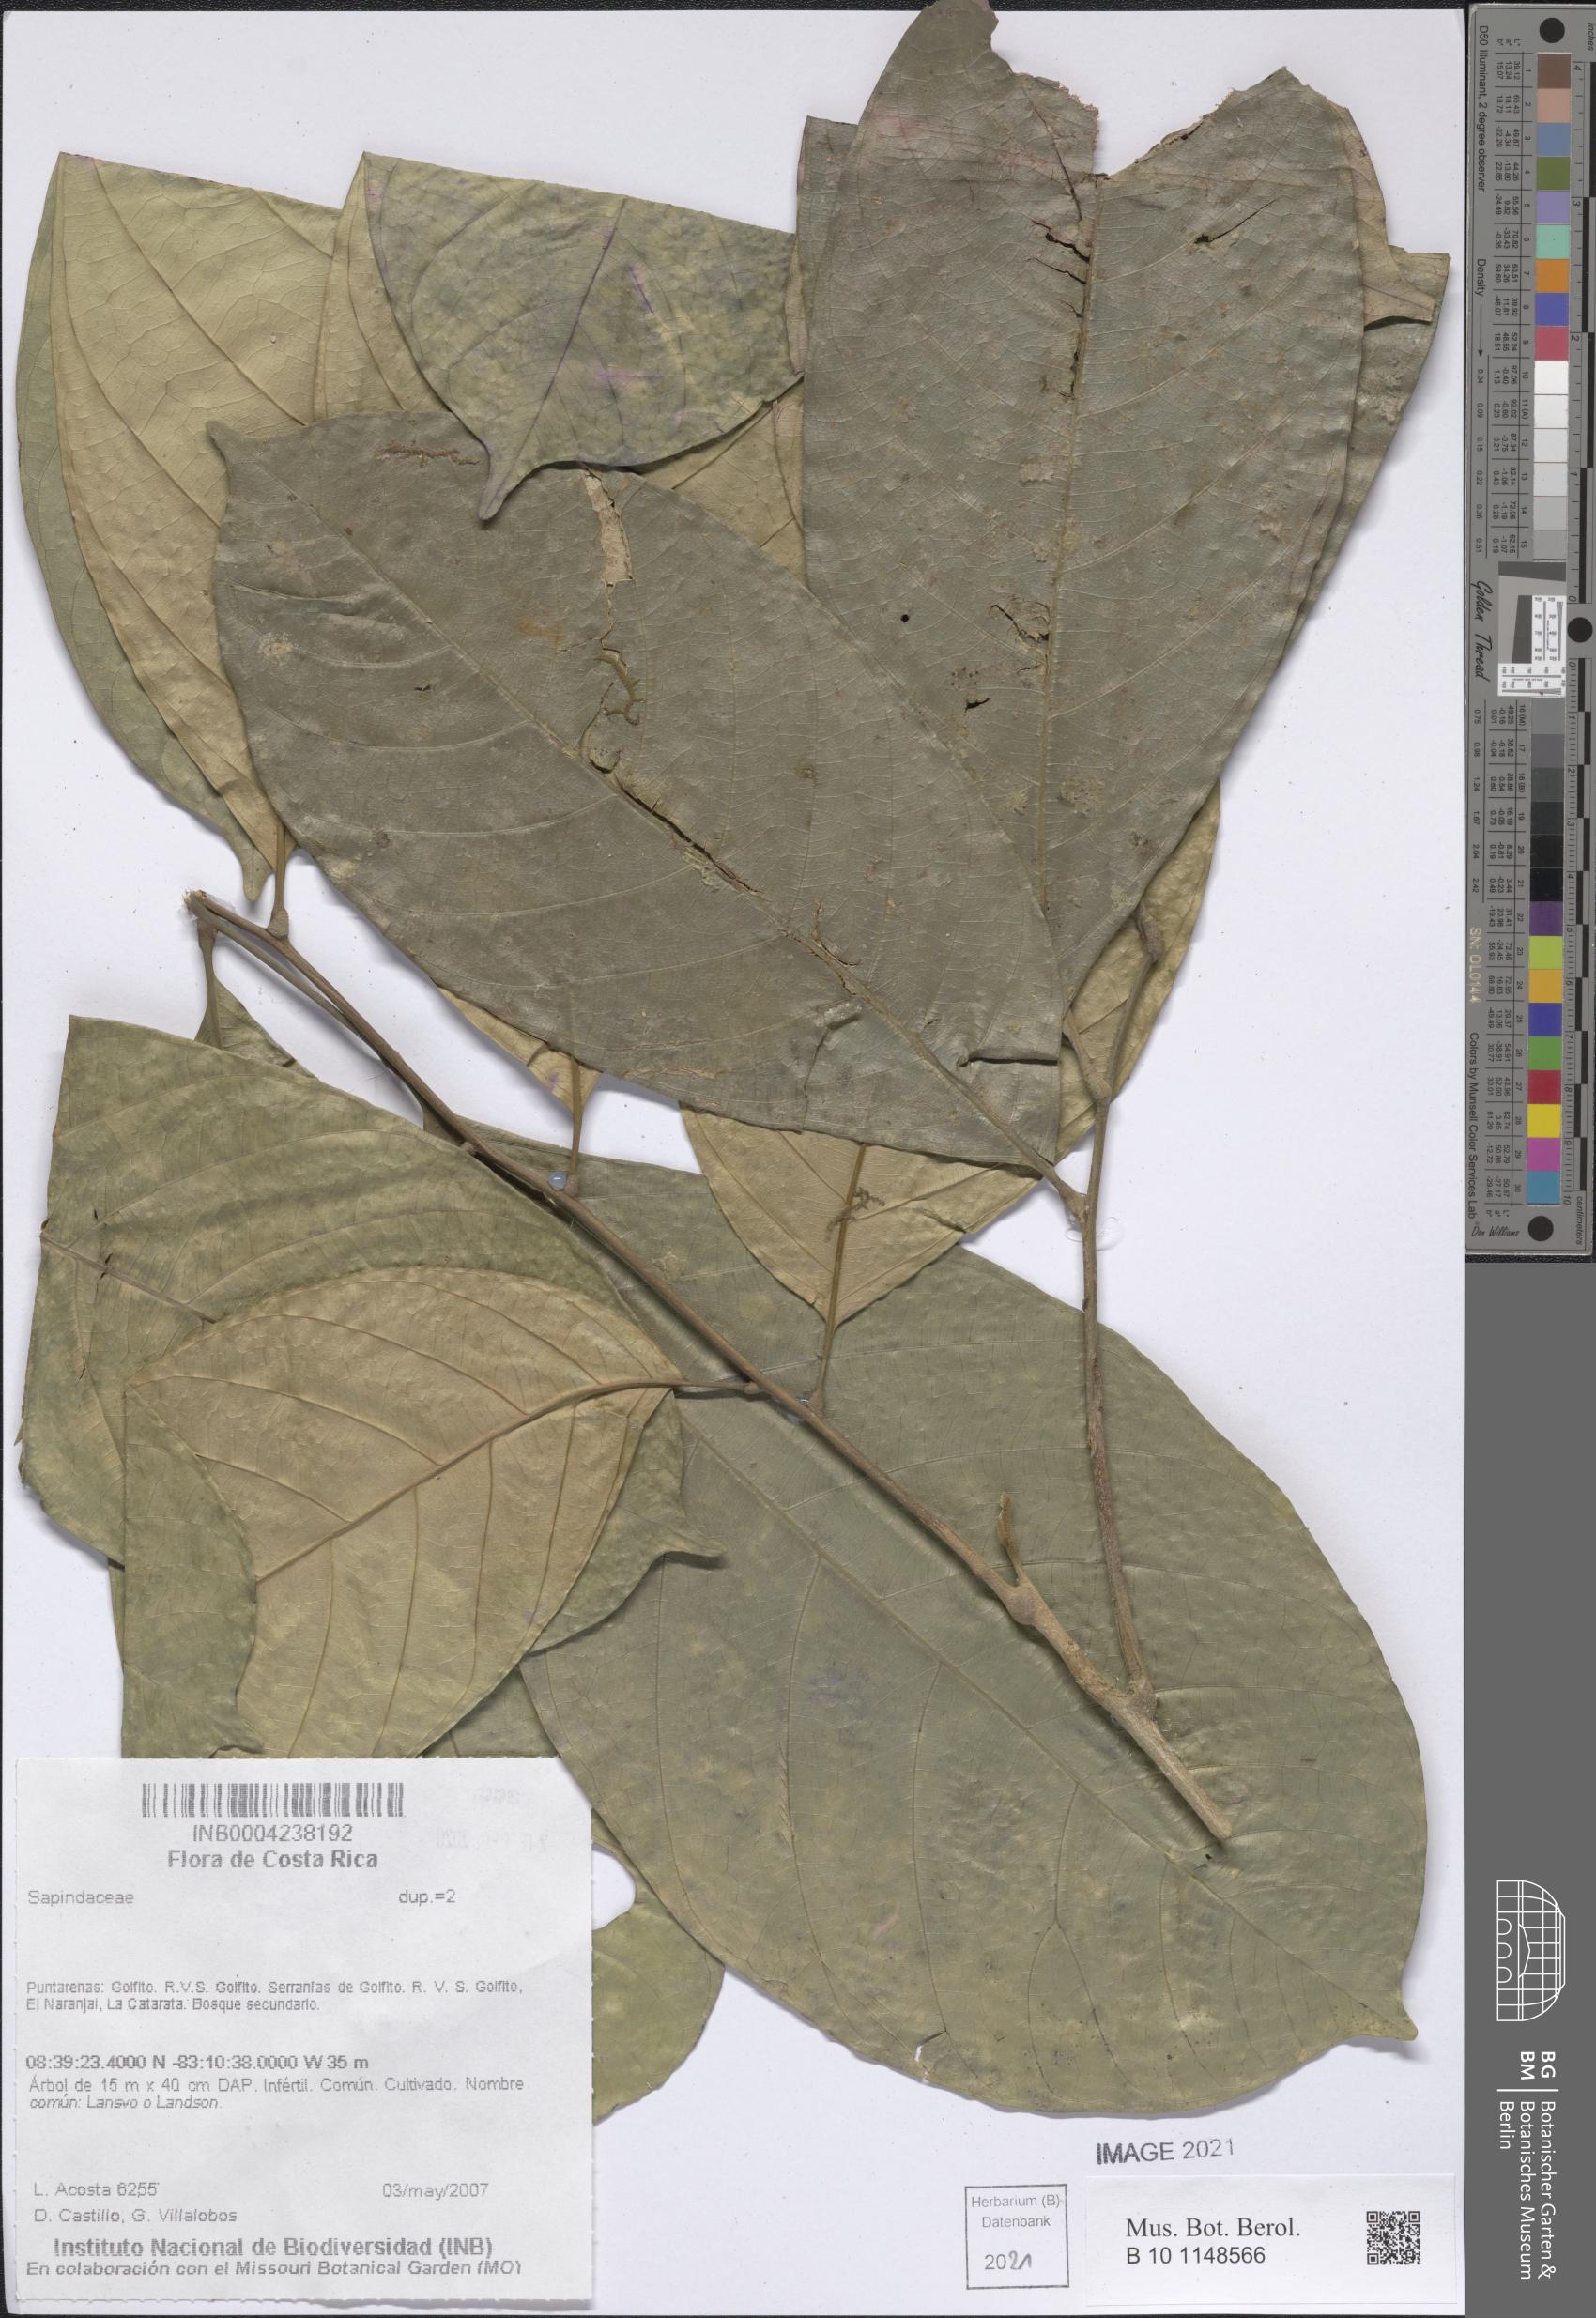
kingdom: Plantae
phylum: Tracheophyta
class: Magnoliopsida
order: Sapindales
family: Sapindaceae
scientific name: Sapindaceae
